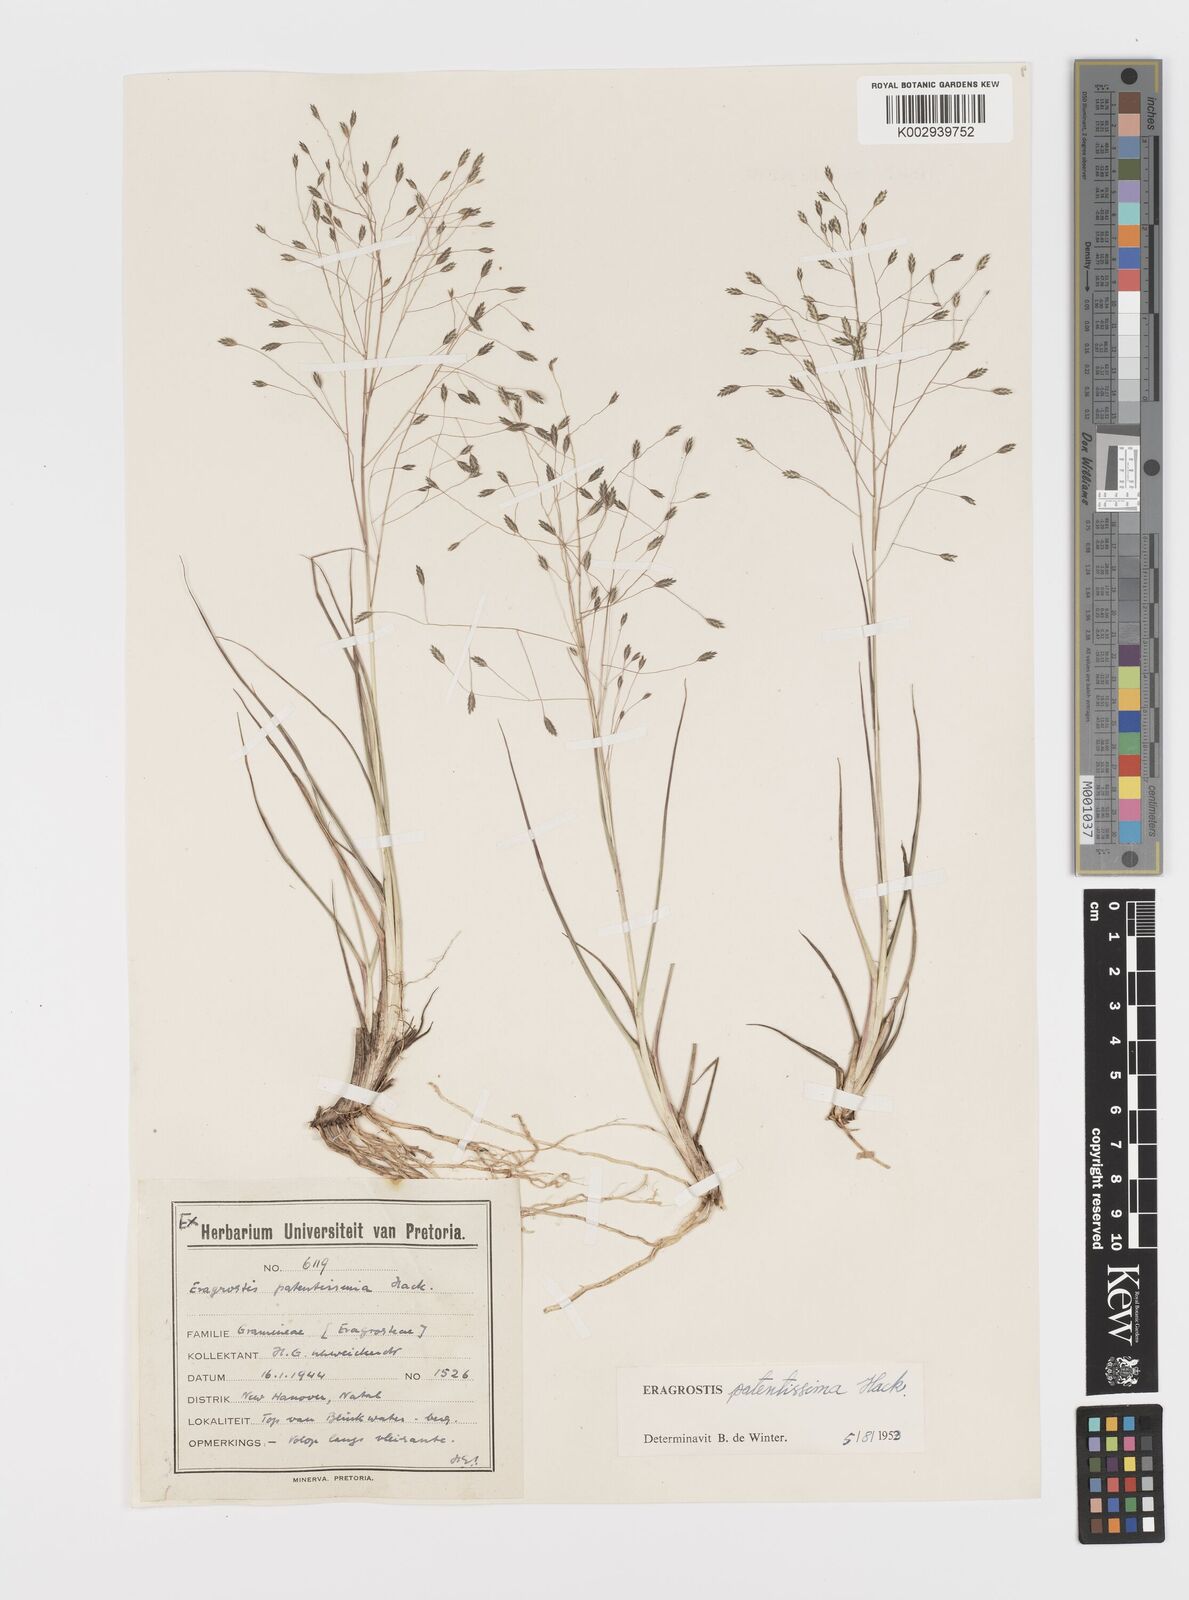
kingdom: Plantae
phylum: Tracheophyta
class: Liliopsida
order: Poales
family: Poaceae
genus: Eragrostis
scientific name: Eragrostis patentissima
